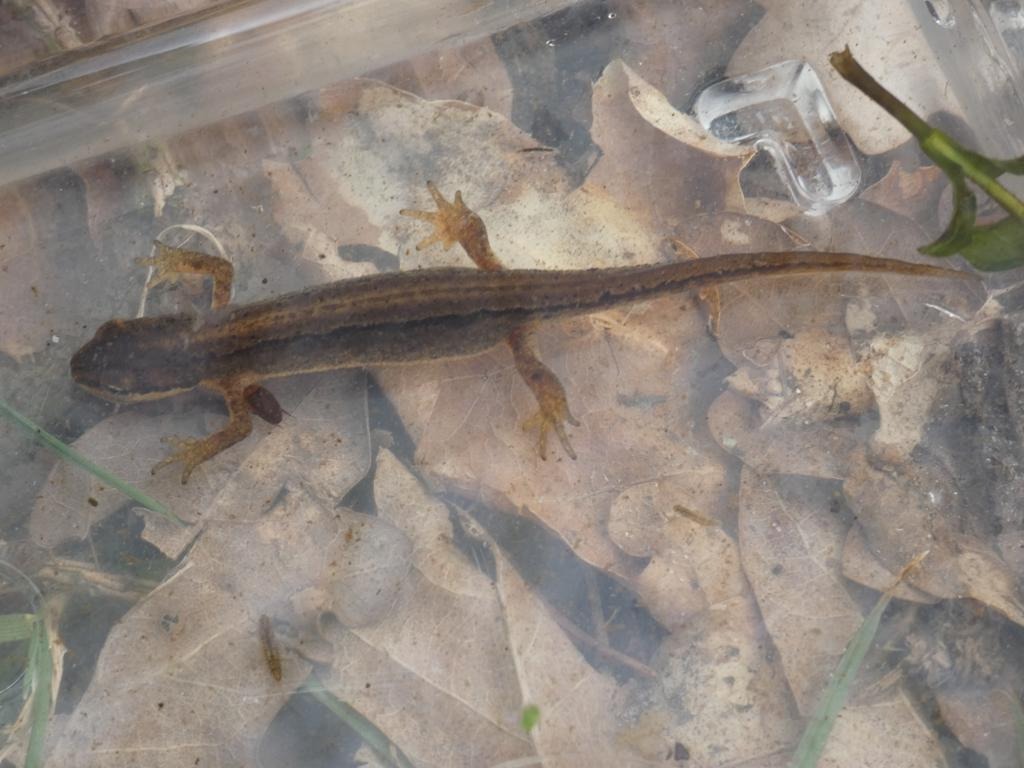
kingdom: Animalia
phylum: Chordata
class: Amphibia
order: Caudata
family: Salamandridae
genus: Lissotriton
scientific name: Lissotriton vulgaris
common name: Lille vandsalamander
